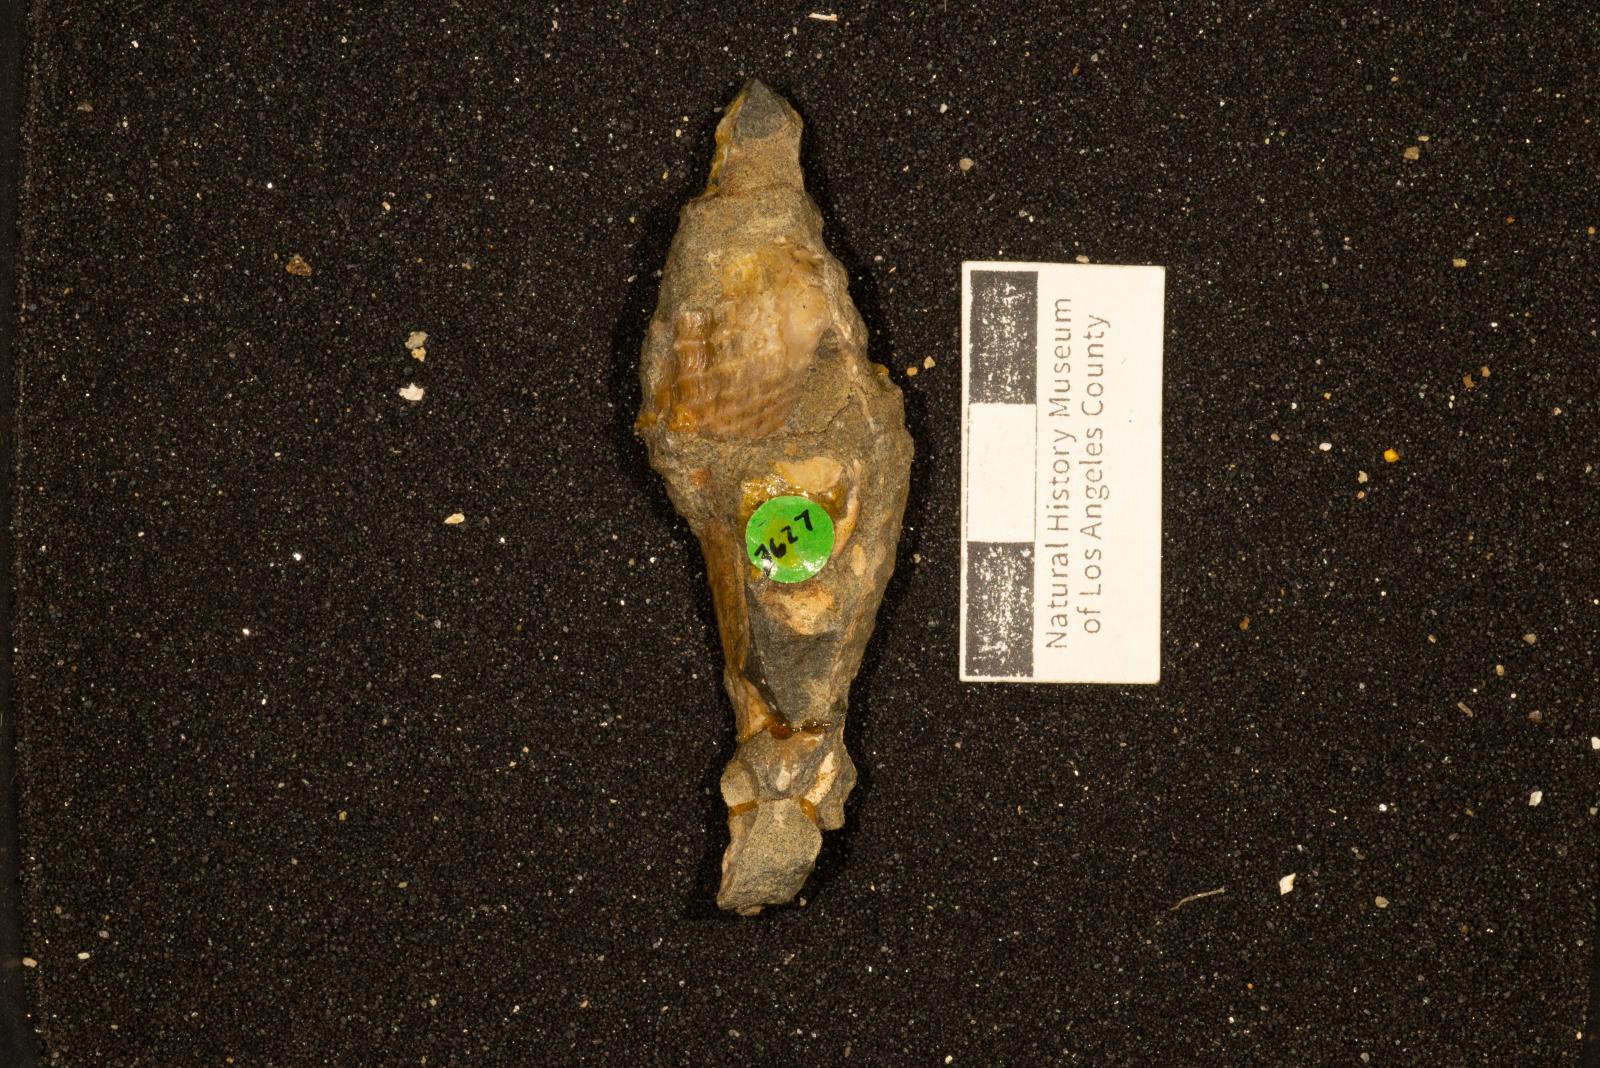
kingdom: Animalia
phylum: Mollusca
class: Gastropoda
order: Neogastropoda
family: Pholidotomidae
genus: Volutoderma
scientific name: Volutoderma querna
